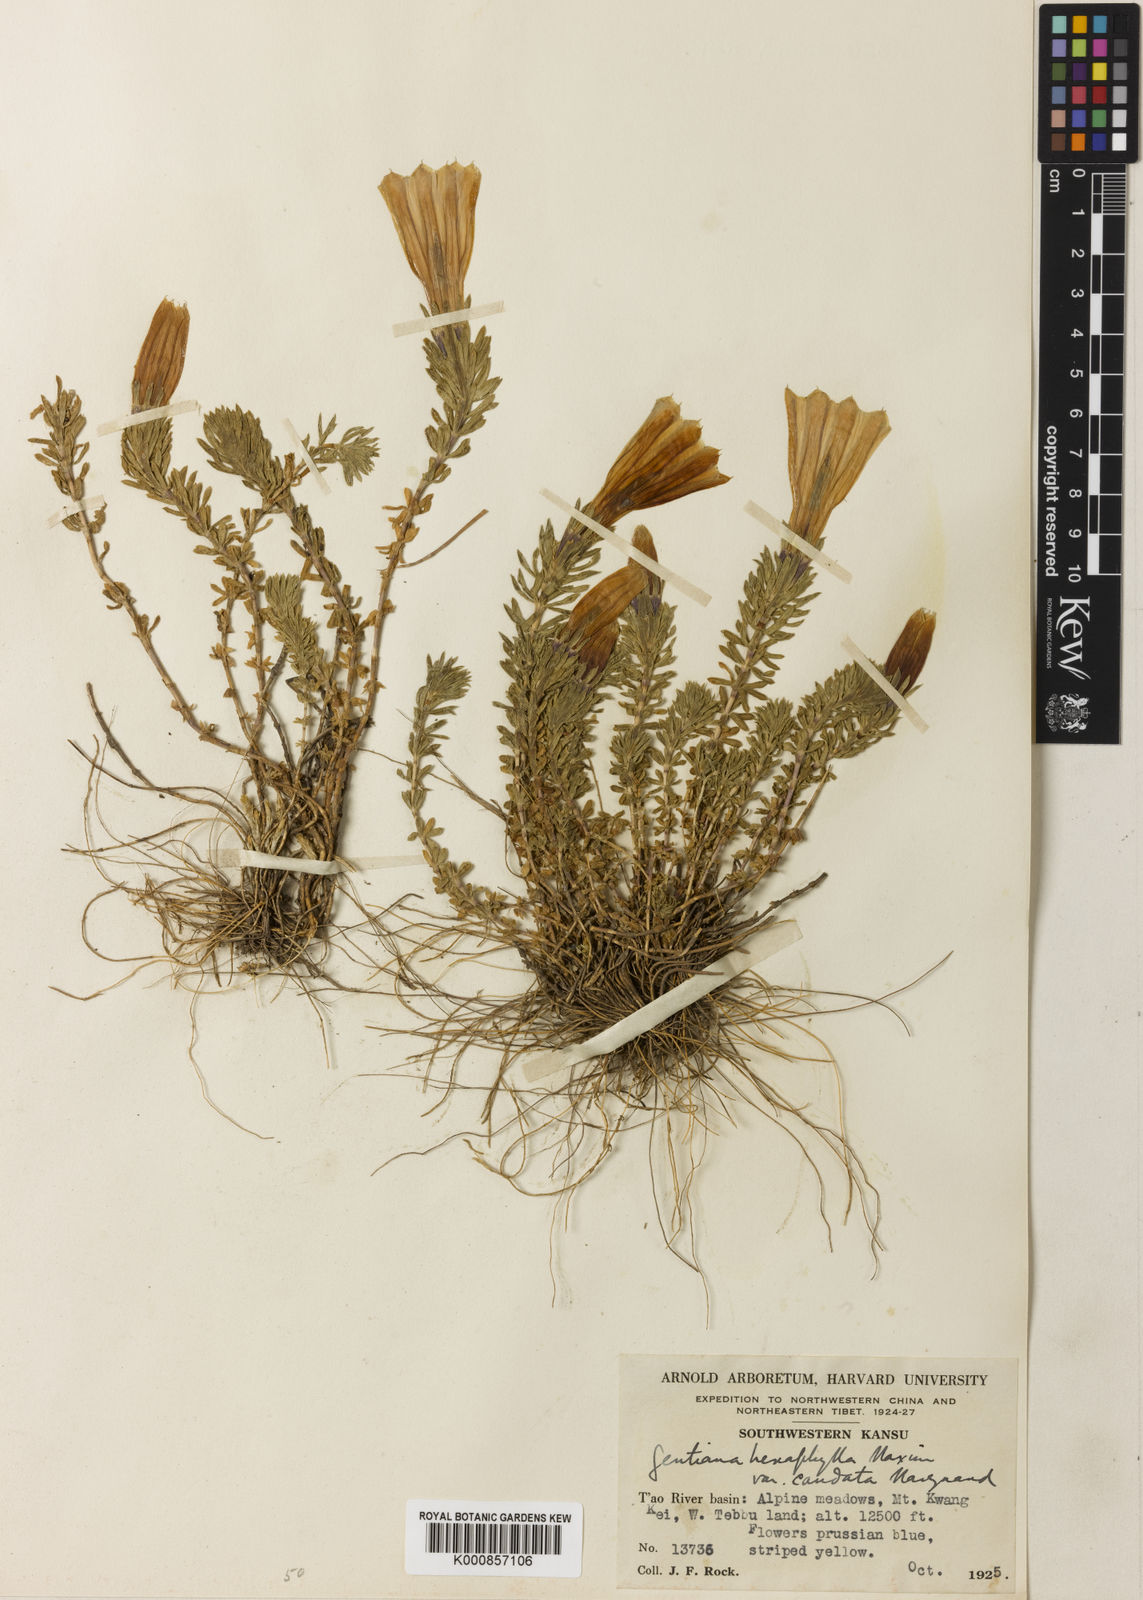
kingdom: Plantae
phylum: Tracheophyta
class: Magnoliopsida
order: Gentianales
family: Gentianaceae
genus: Gentiana
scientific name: Gentiana
